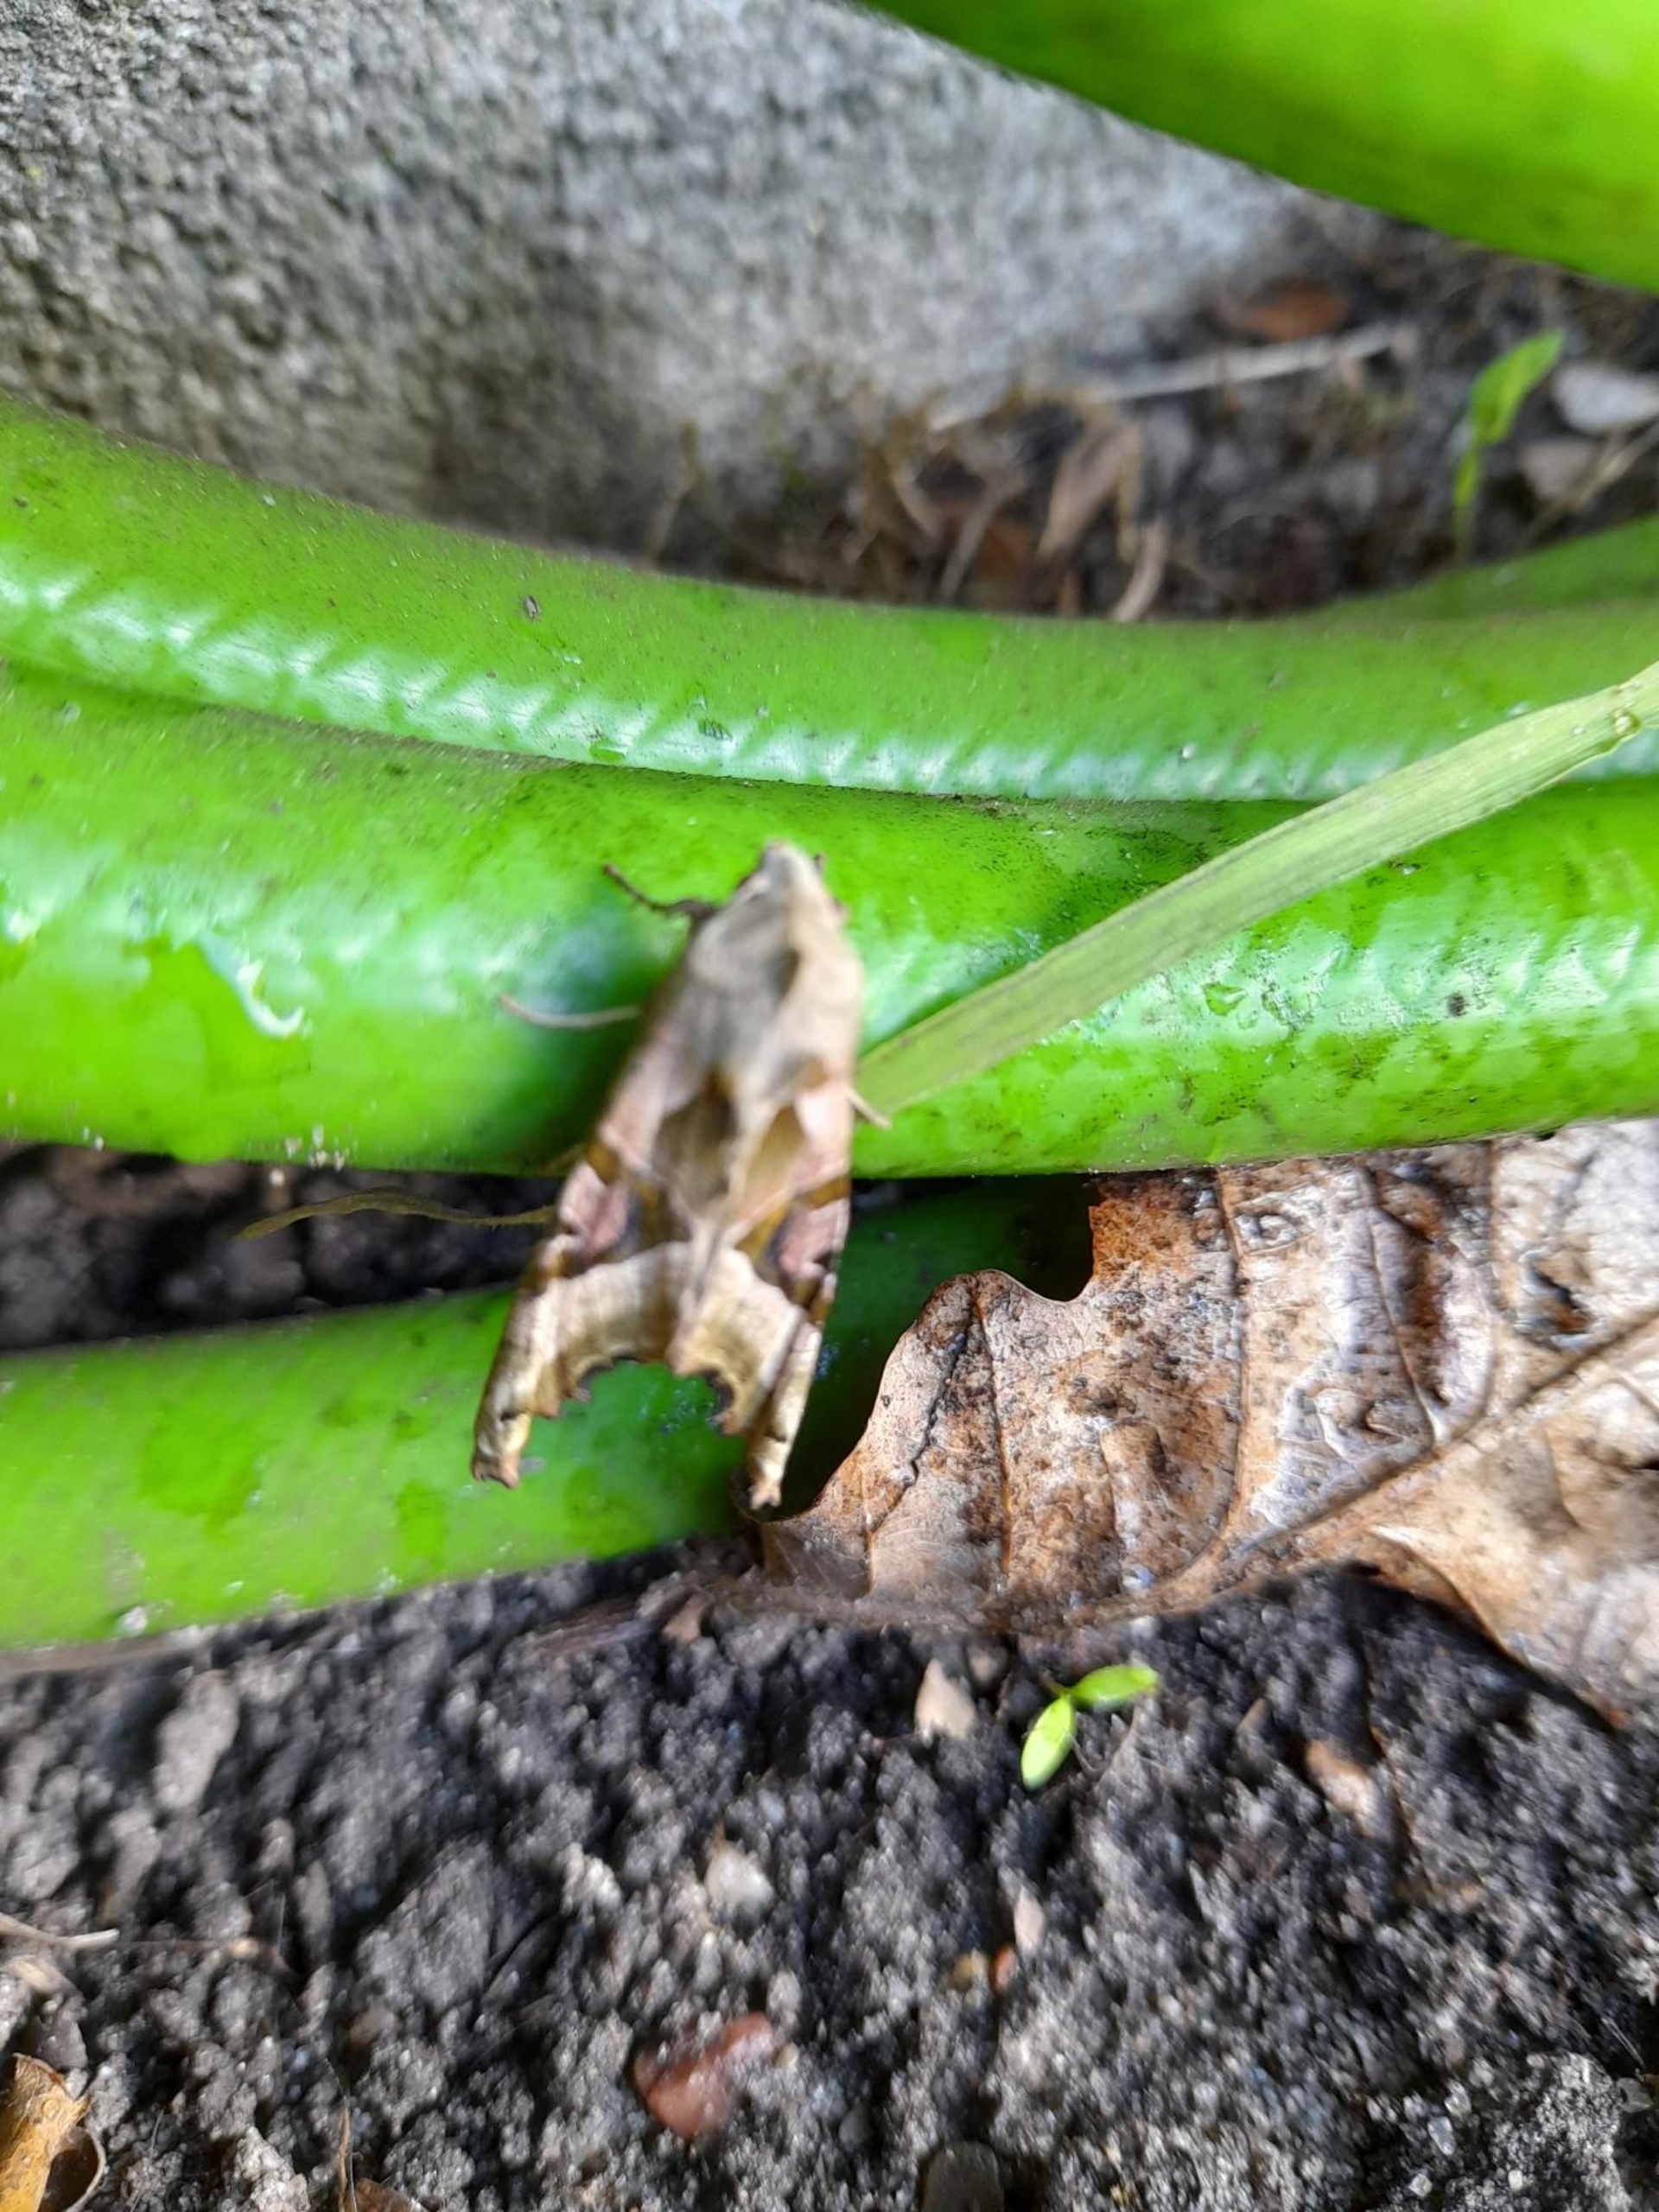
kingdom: Animalia
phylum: Arthropoda
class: Insecta
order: Lepidoptera
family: Noctuidae
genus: Phlogophora
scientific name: Phlogophora meticulosa
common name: Agatugle
